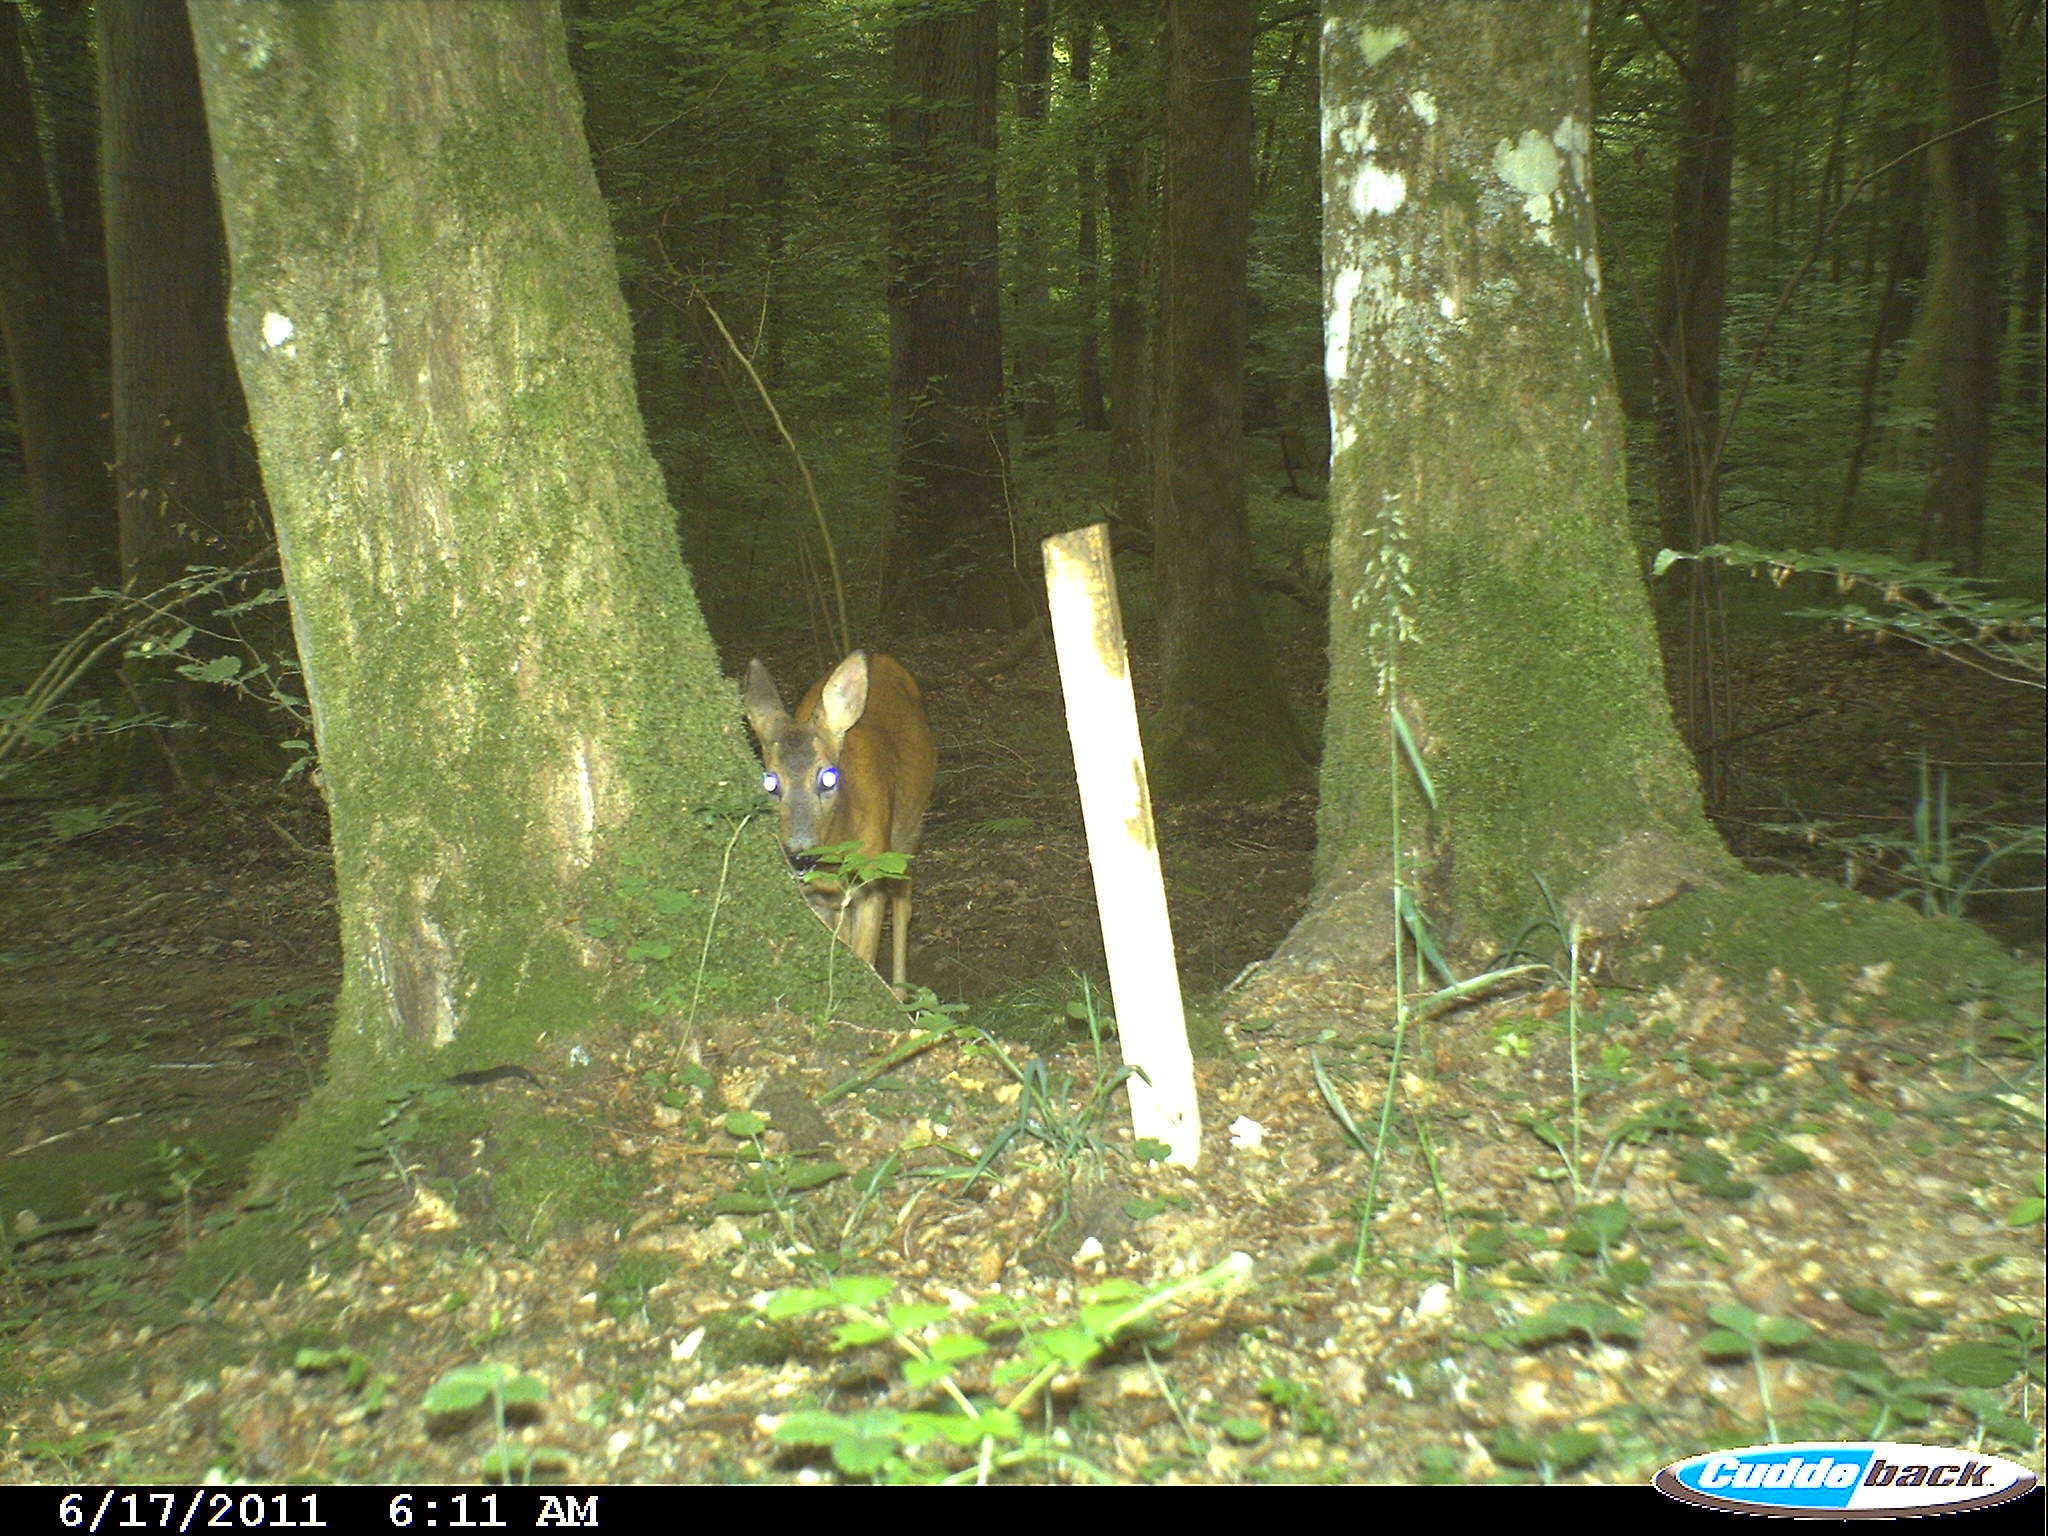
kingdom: Animalia
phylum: Chordata
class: Mammalia
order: Artiodactyla
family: Cervidae
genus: Capreolus
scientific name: Capreolus capreolus
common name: Western roe deer
